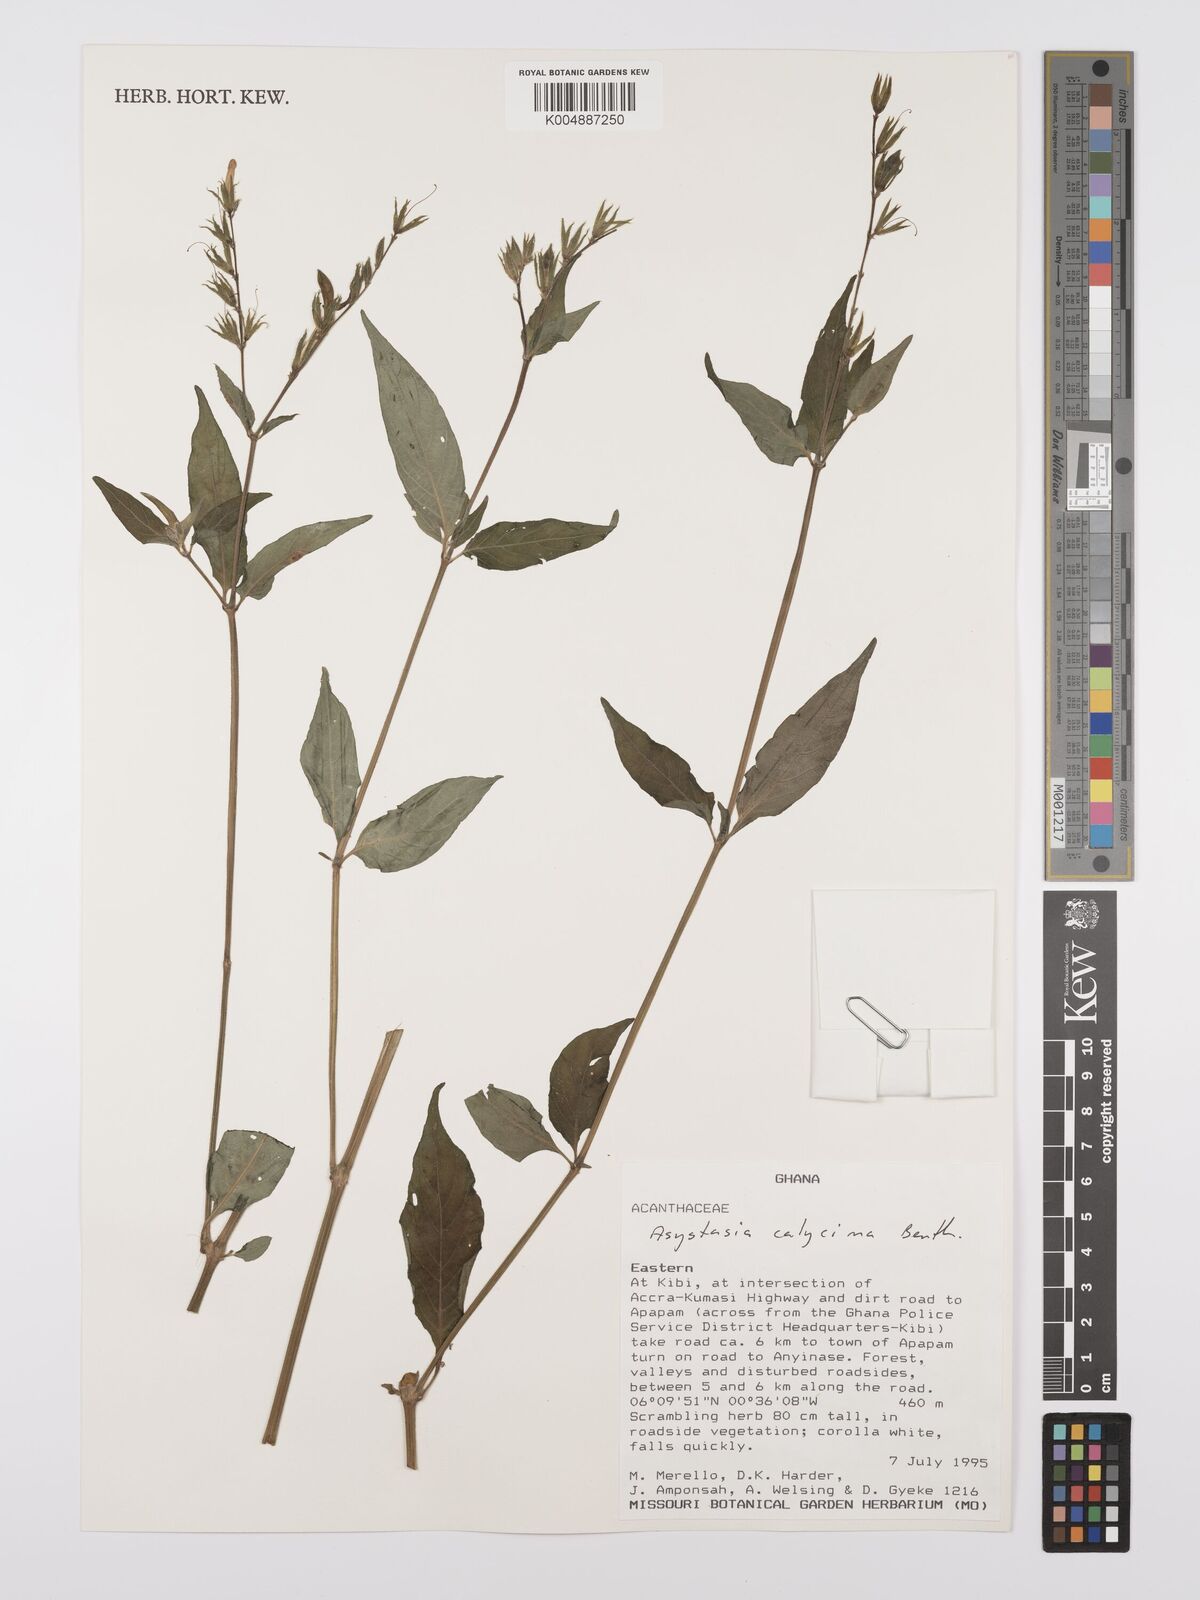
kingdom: Plantae
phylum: Tracheophyta
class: Magnoliopsida
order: Lamiales
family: Acanthaceae
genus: Asystasia
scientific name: Asystasia buettneri
